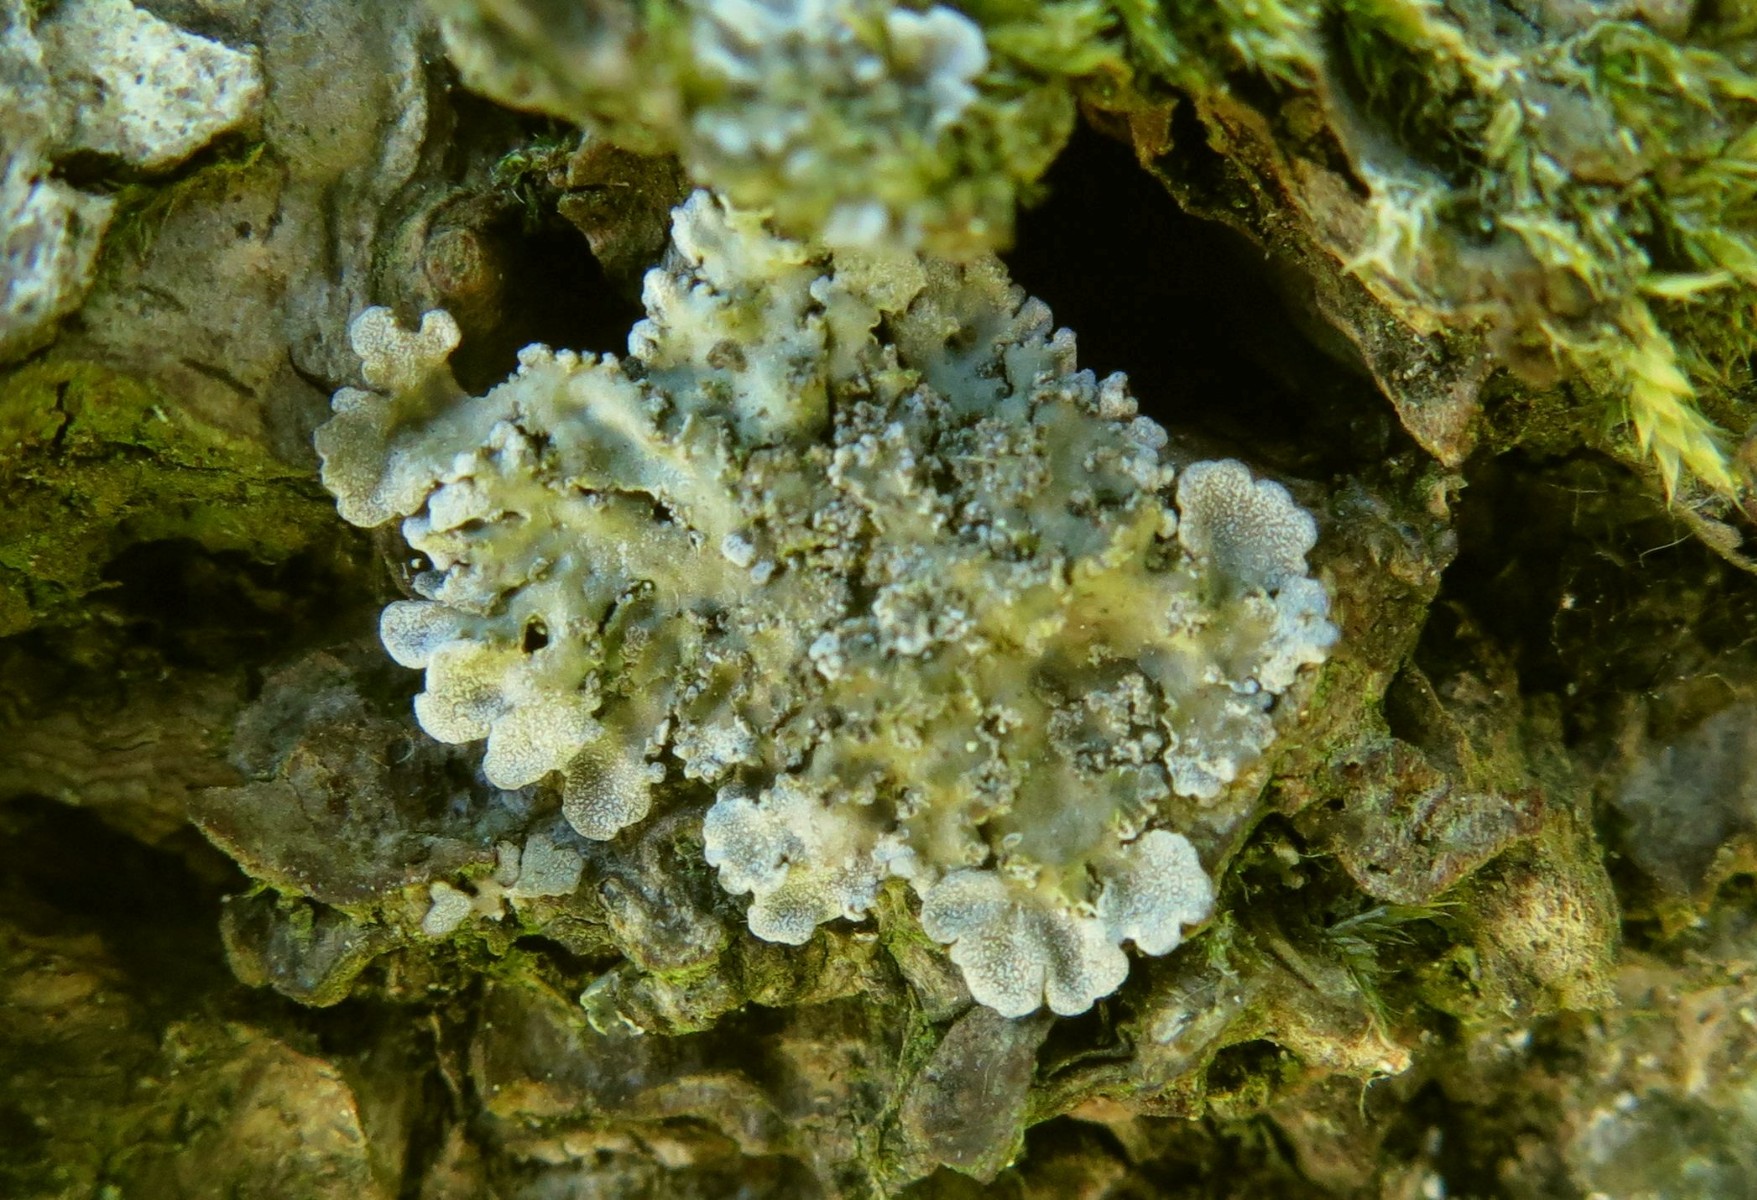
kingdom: Fungi
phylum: Ascomycota
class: Lecanoromycetes
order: Caliciales
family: Physciaceae
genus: Poeltonia
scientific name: Poeltonia grisea
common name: hvidgrå dugrosetlav
